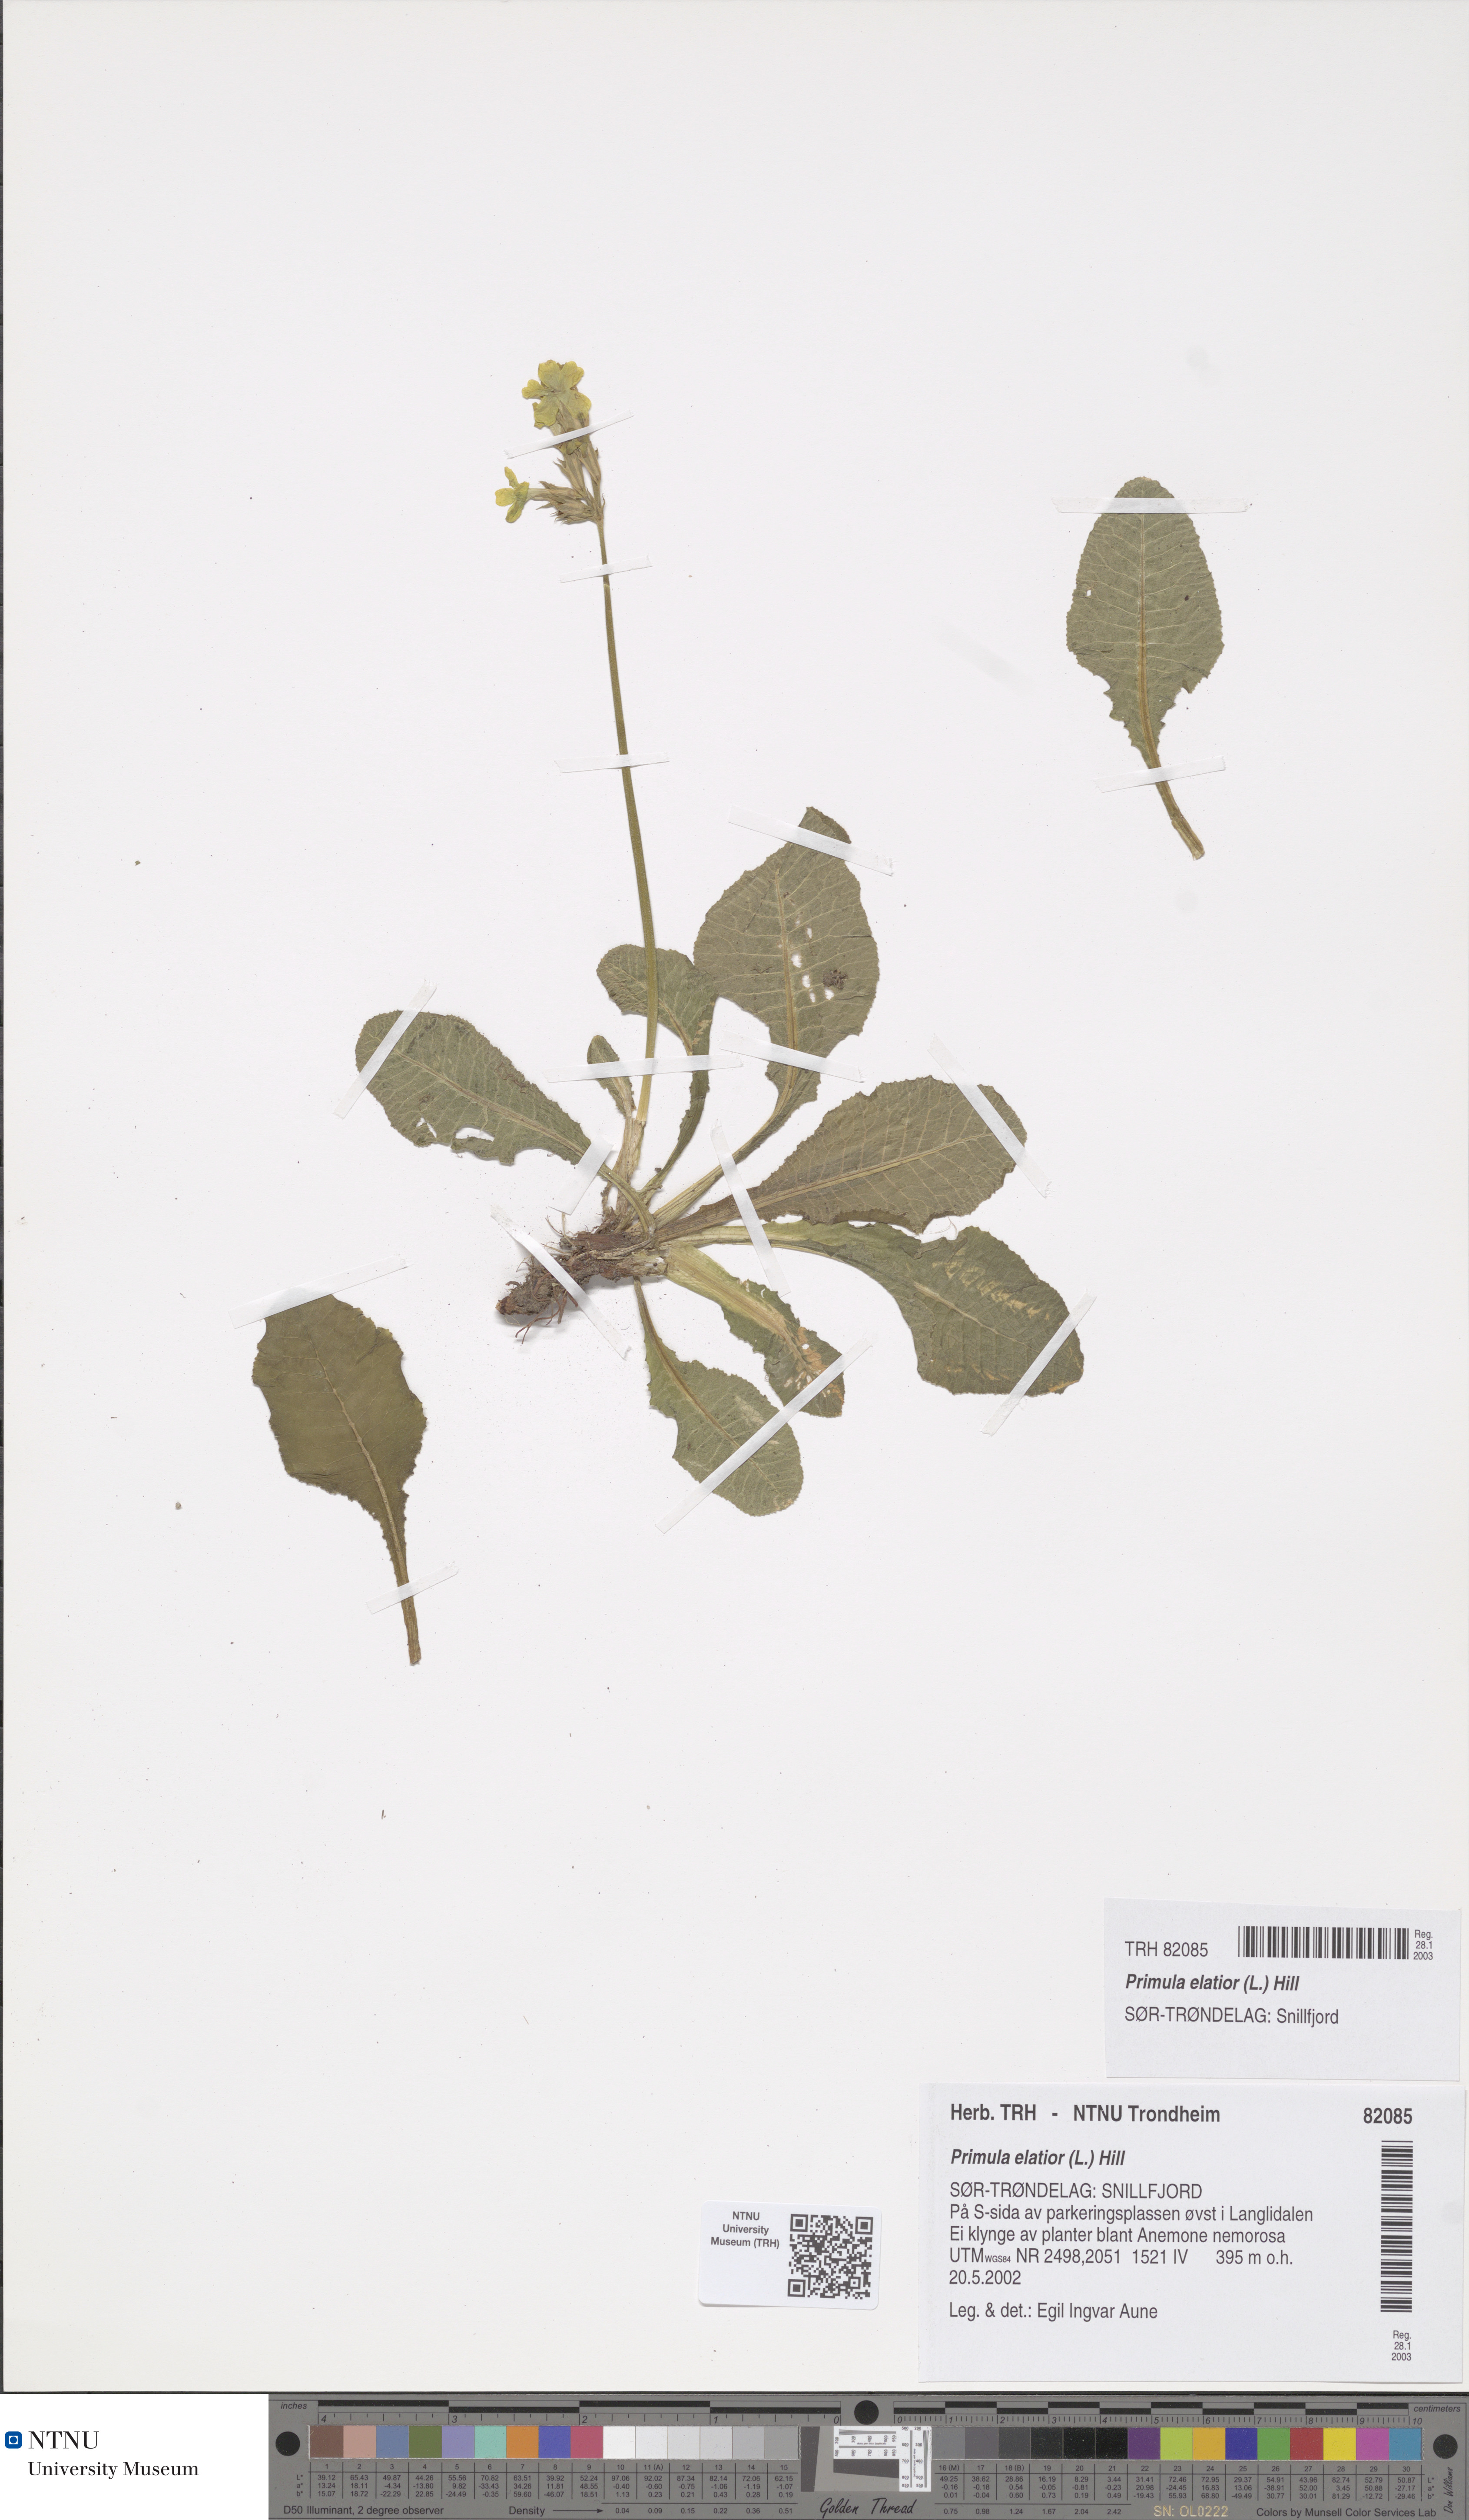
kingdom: Plantae
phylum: Tracheophyta
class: Magnoliopsida
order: Ericales
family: Primulaceae
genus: Primula
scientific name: Primula elatior
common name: Oxlip
